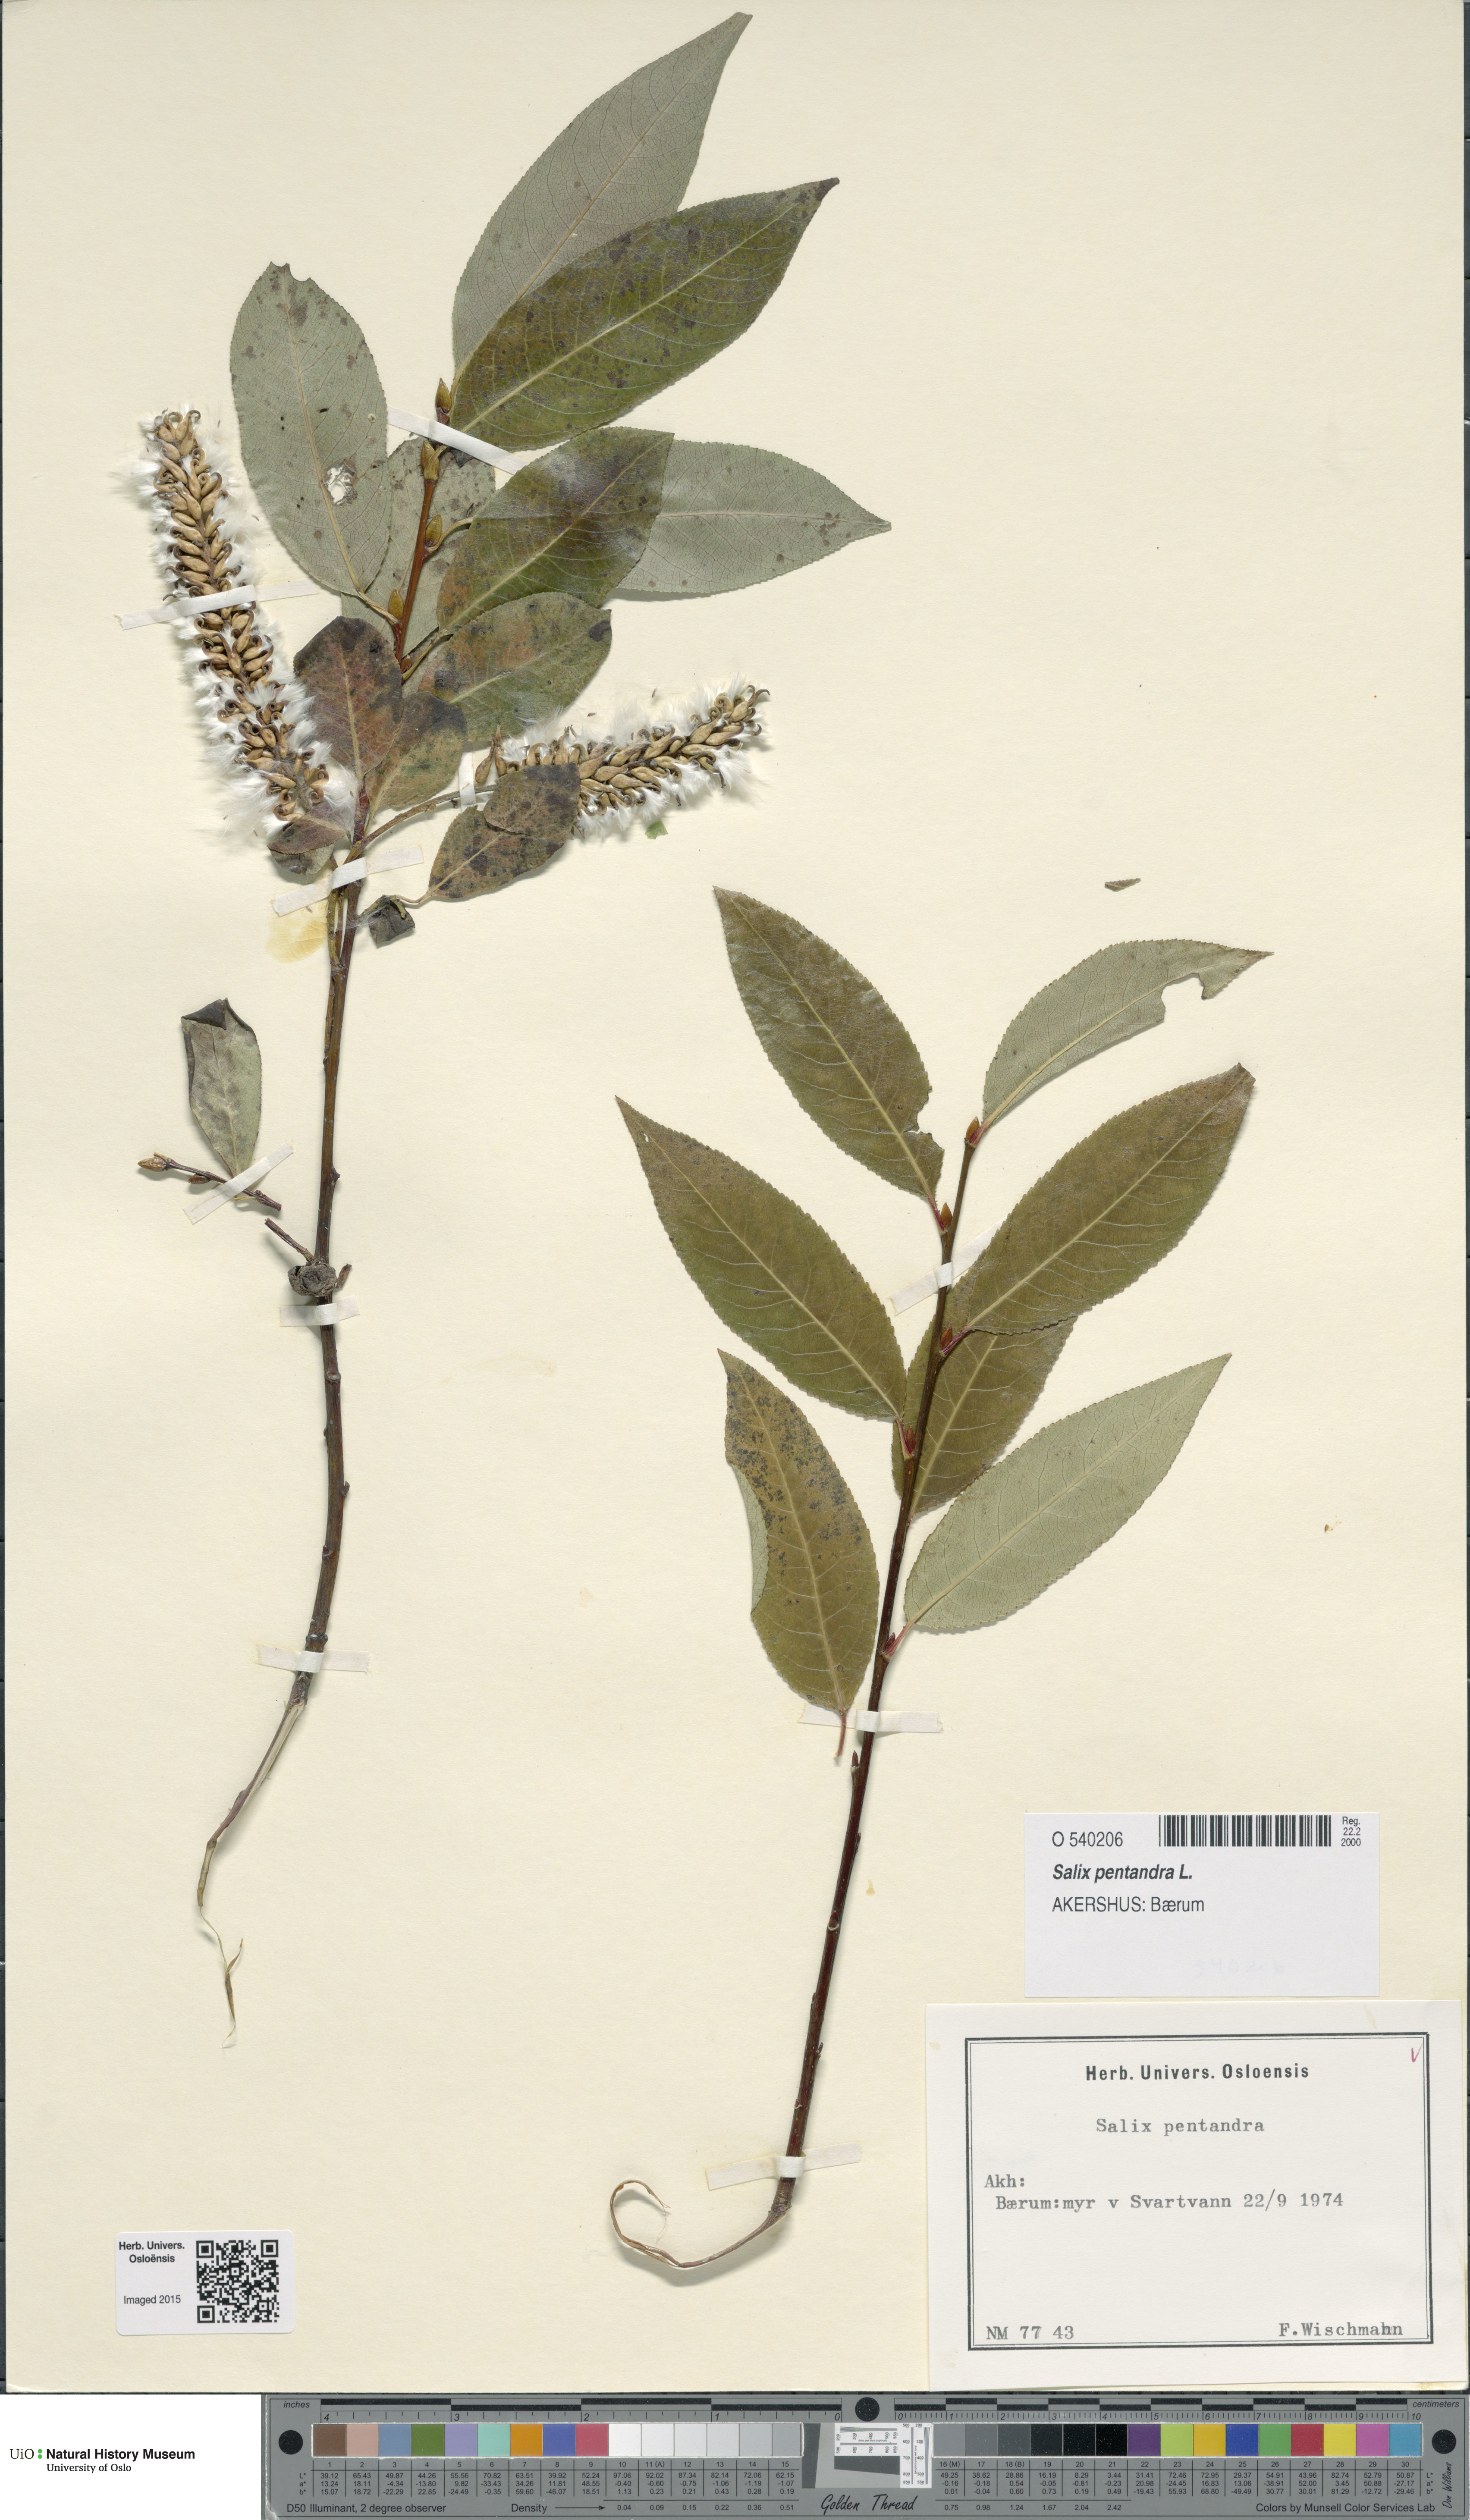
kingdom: Plantae
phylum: Tracheophyta
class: Magnoliopsida
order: Malpighiales
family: Salicaceae
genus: Salix
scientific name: Salix pentandra
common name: Bay willow
